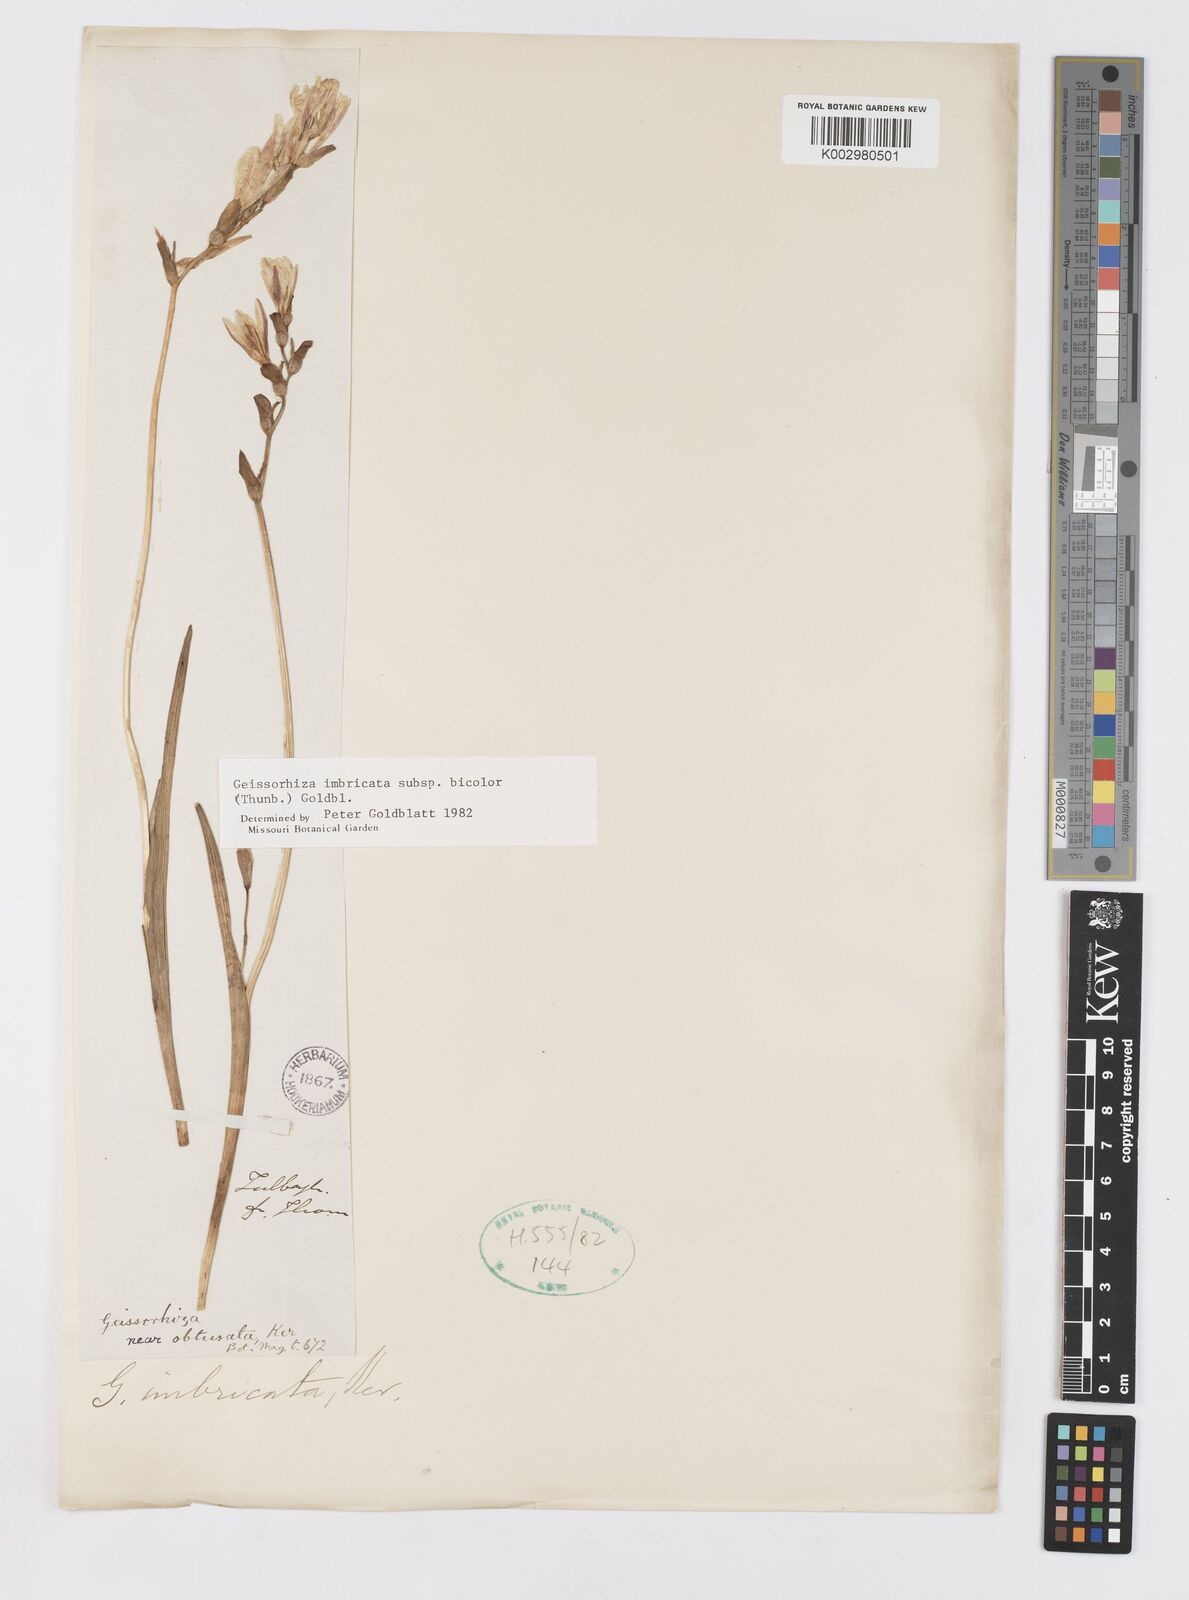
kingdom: Plantae
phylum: Tracheophyta
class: Liliopsida
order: Asparagales
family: Iridaceae
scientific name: Iridaceae
